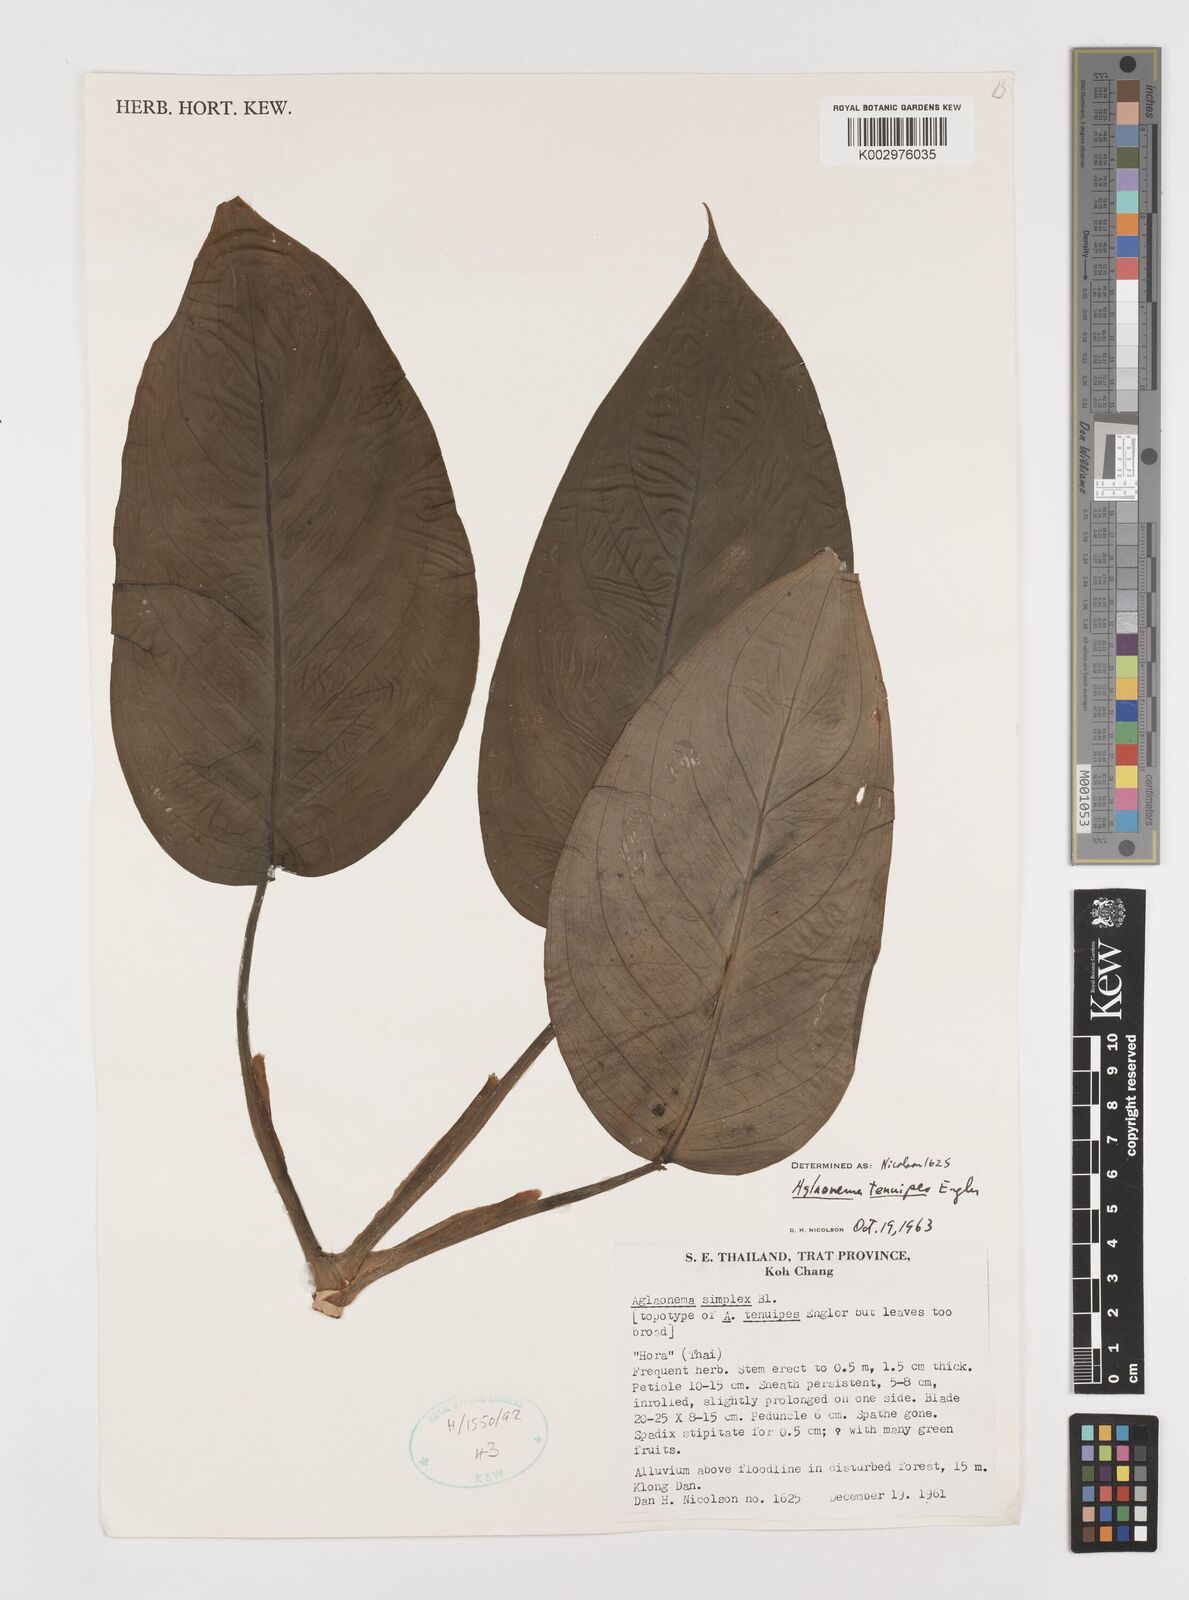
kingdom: Plantae
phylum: Tracheophyta
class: Liliopsida
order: Alismatales
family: Araceae
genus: Aglaonema
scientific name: Aglaonema simplex
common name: Malayan-sword
